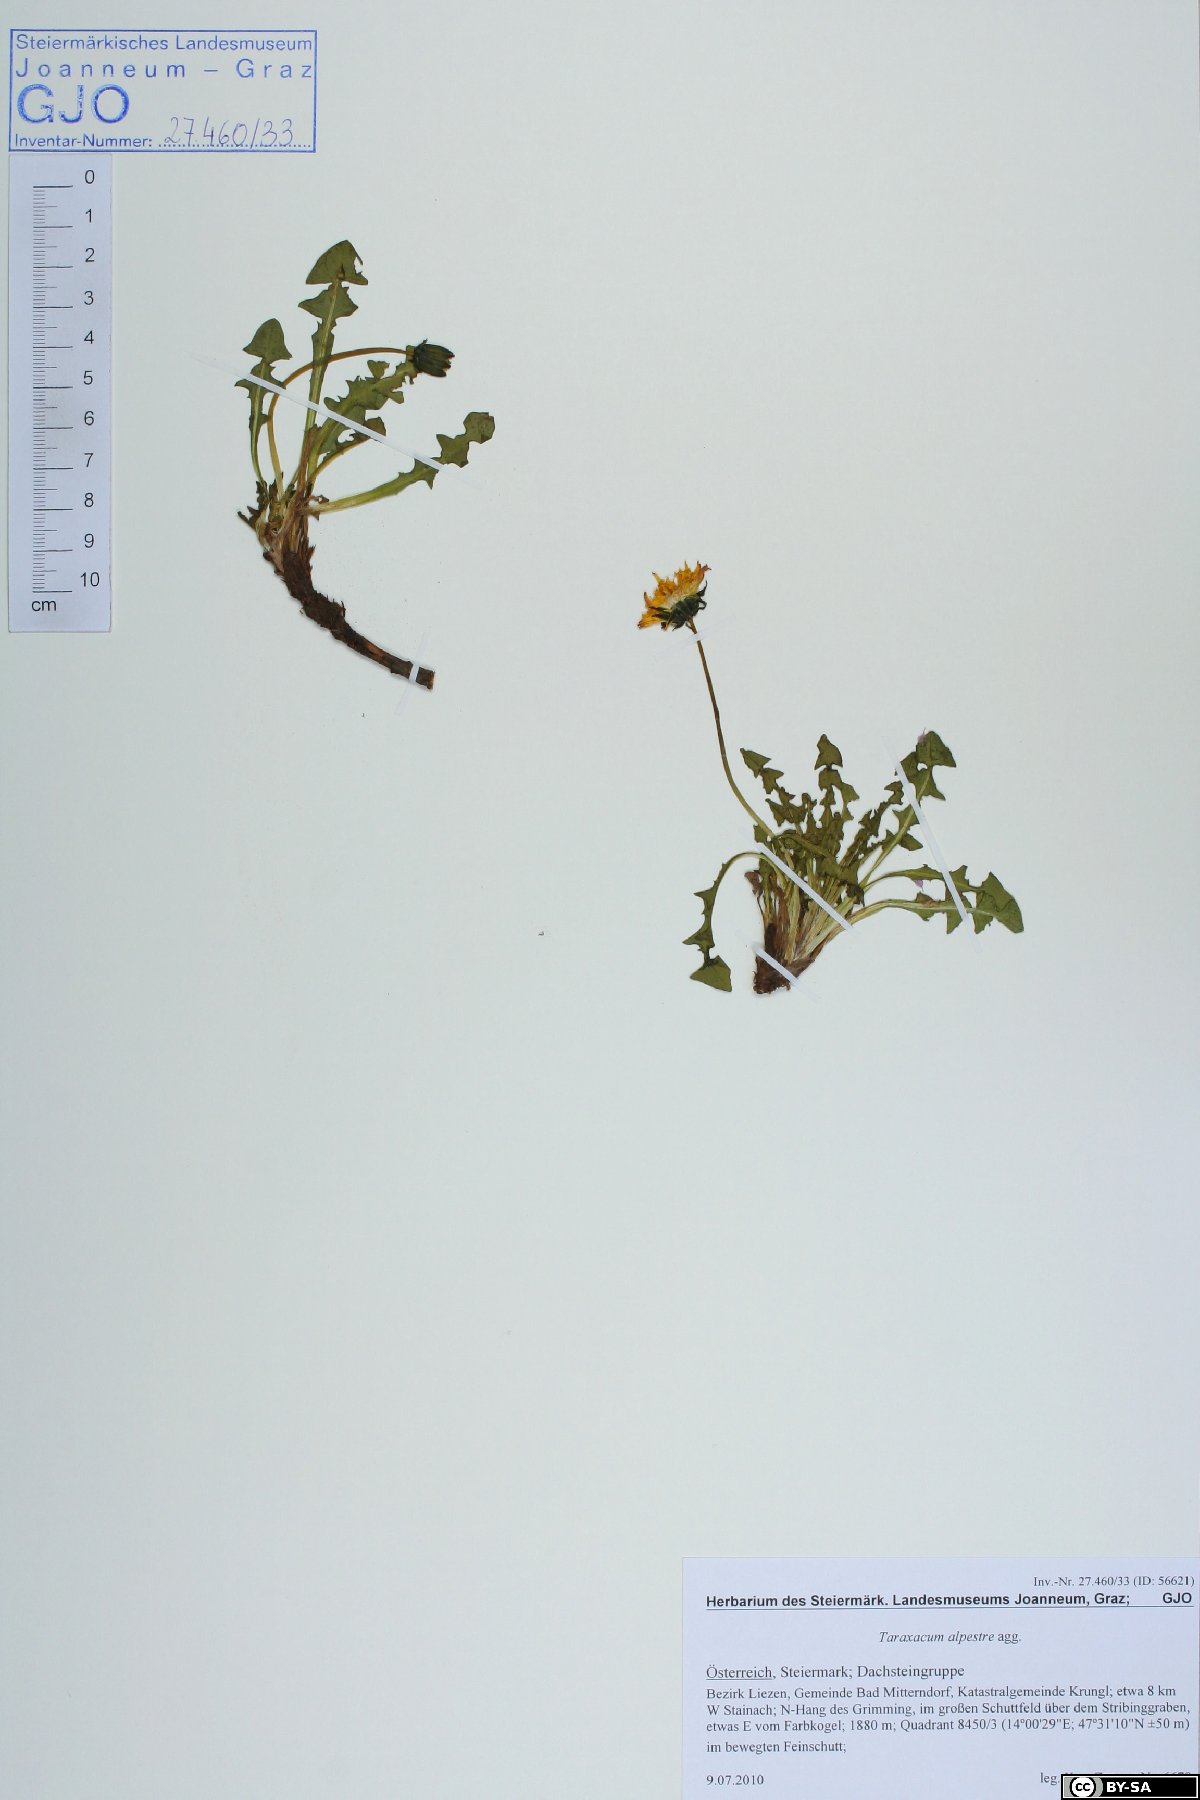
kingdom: Plantae
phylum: Tracheophyta
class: Magnoliopsida
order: Asterales
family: Asteraceae
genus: Taraxacum
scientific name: Taraxacum fontanum
